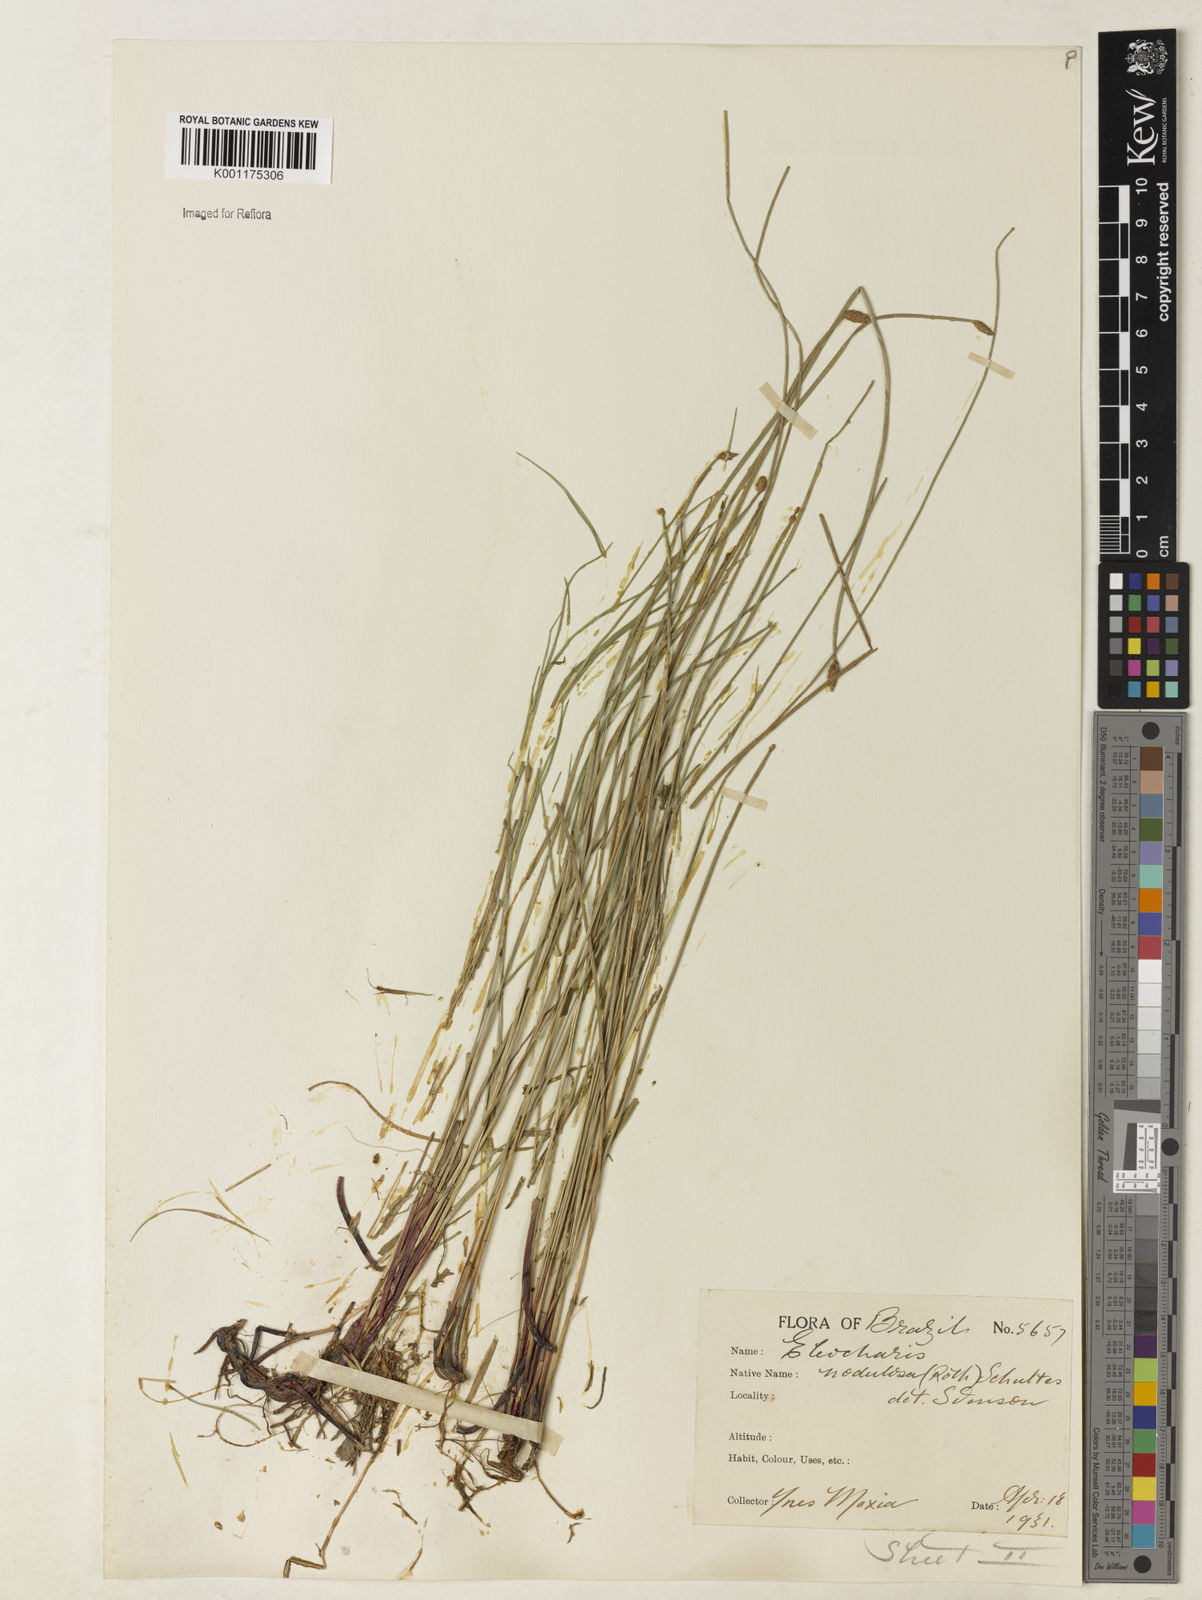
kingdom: Plantae
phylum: Tracheophyta
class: Liliopsida
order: Poales
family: Cyperaceae
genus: Eleocharis
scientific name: Eleocharis montana
